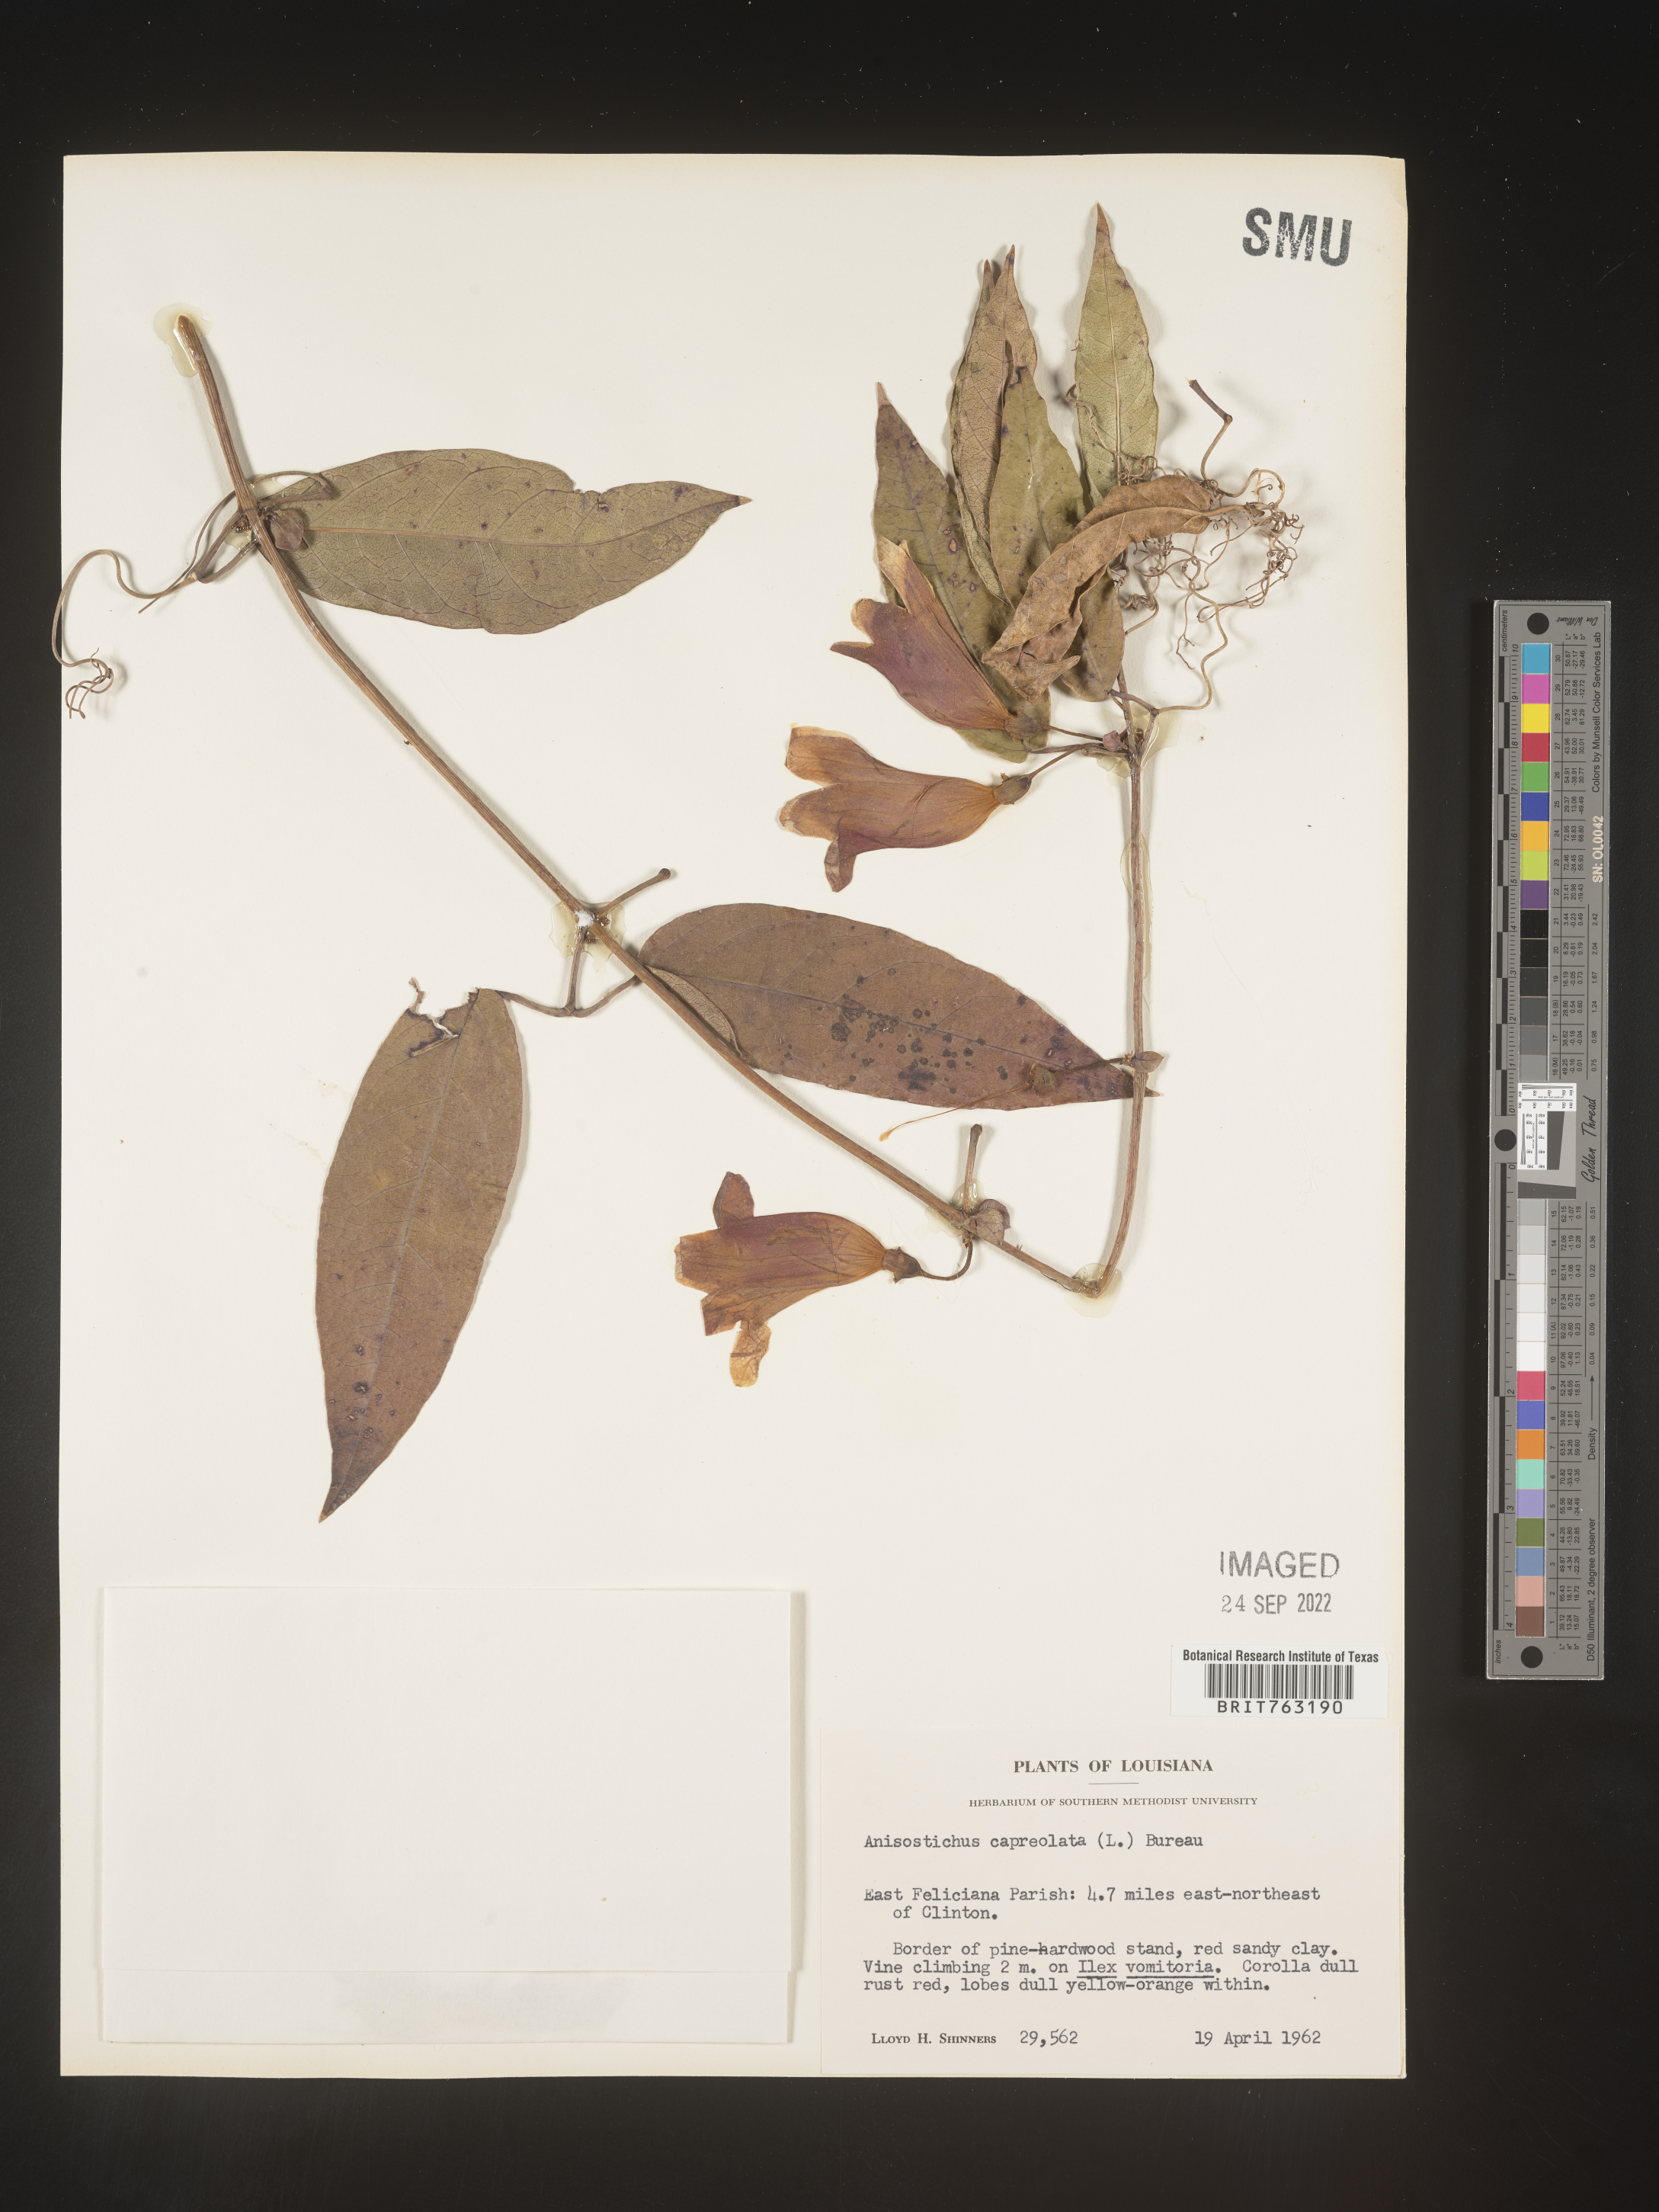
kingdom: Plantae
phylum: Tracheophyta
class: Magnoliopsida
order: Lamiales
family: Bignoniaceae
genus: Bignonia
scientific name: Bignonia capreolata
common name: Crossvine
